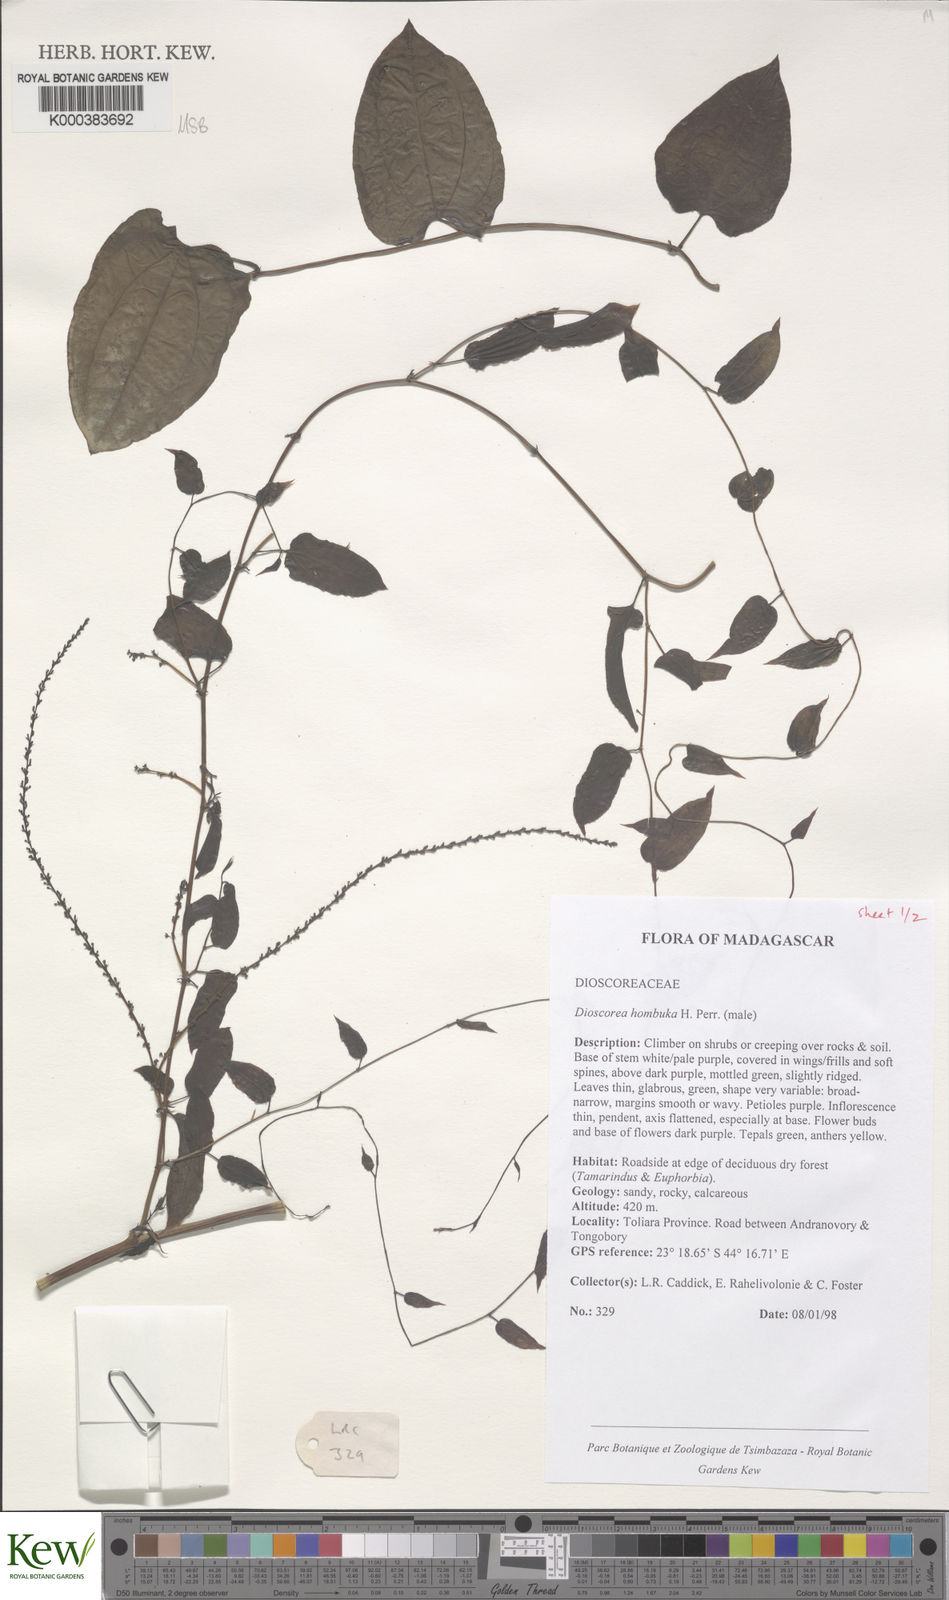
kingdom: Plantae
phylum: Tracheophyta
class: Liliopsida
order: Dioscoreales
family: Dioscoreaceae
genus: Dioscorea
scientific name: Dioscorea
